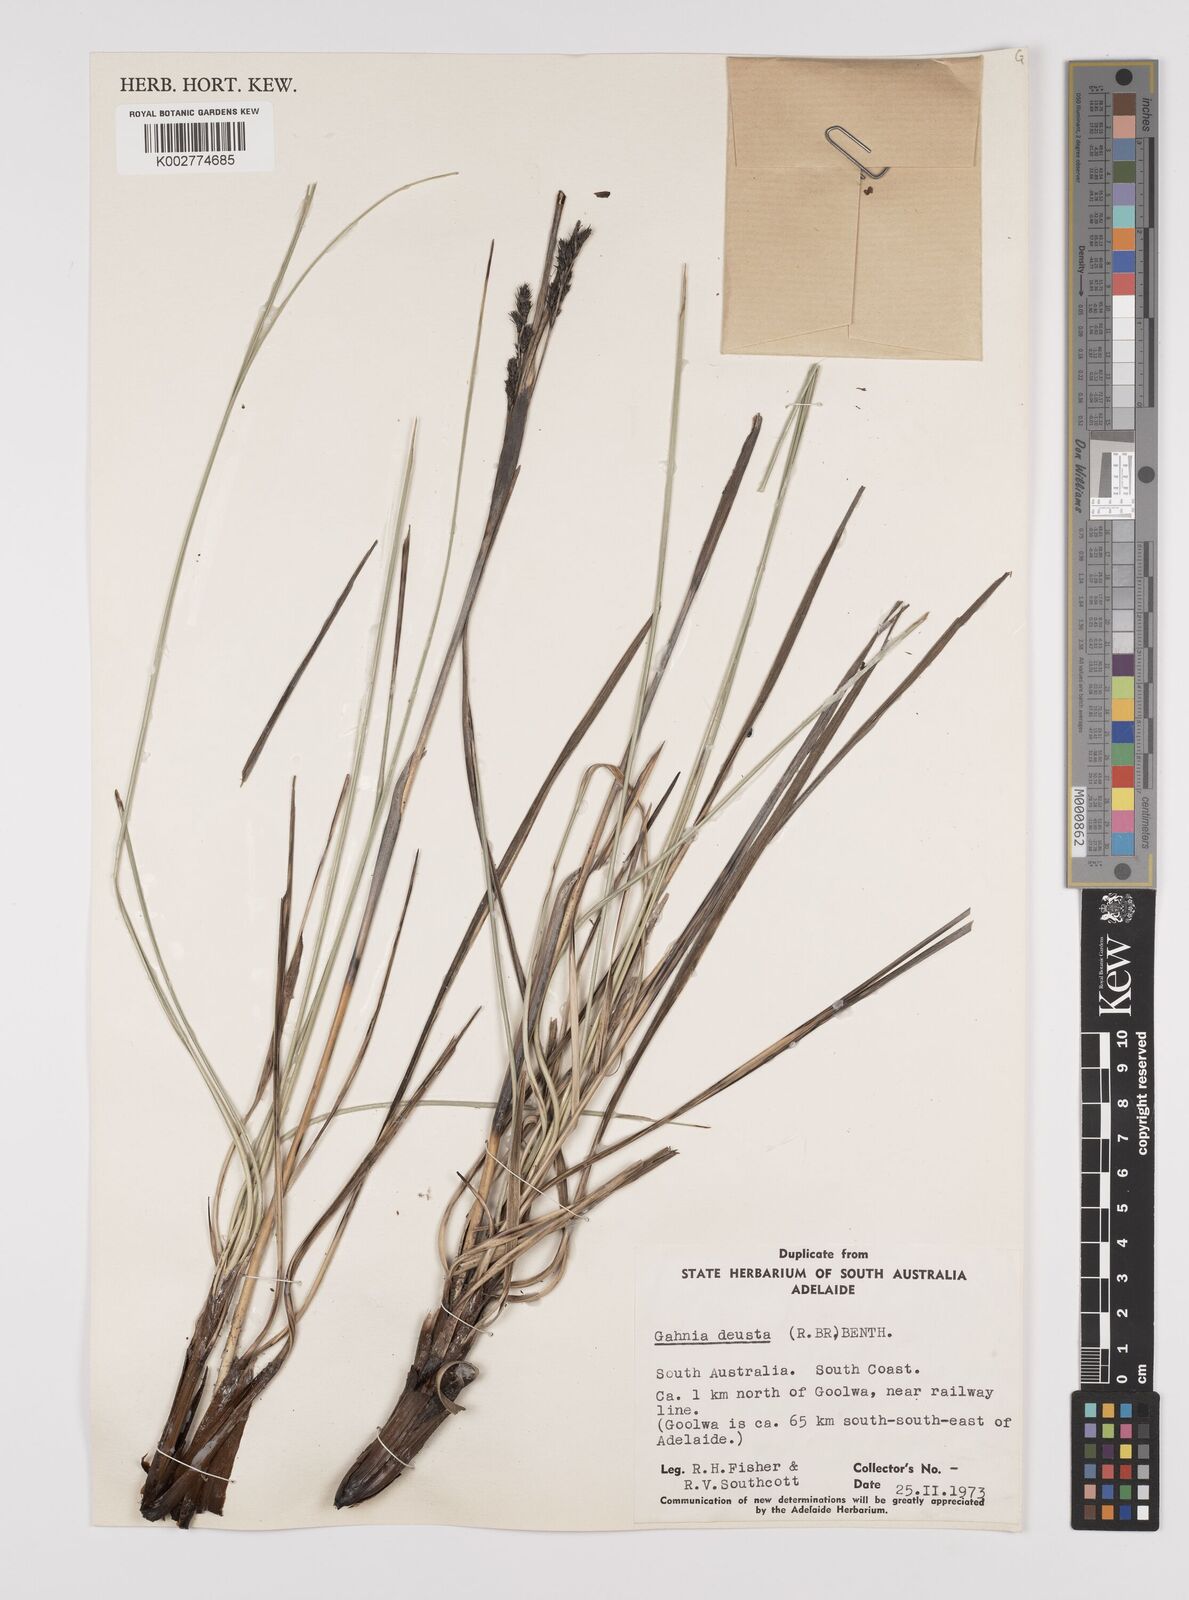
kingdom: Plantae
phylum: Tracheophyta
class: Liliopsida
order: Poales
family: Cyperaceae
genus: Gahnia
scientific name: Gahnia deusta
